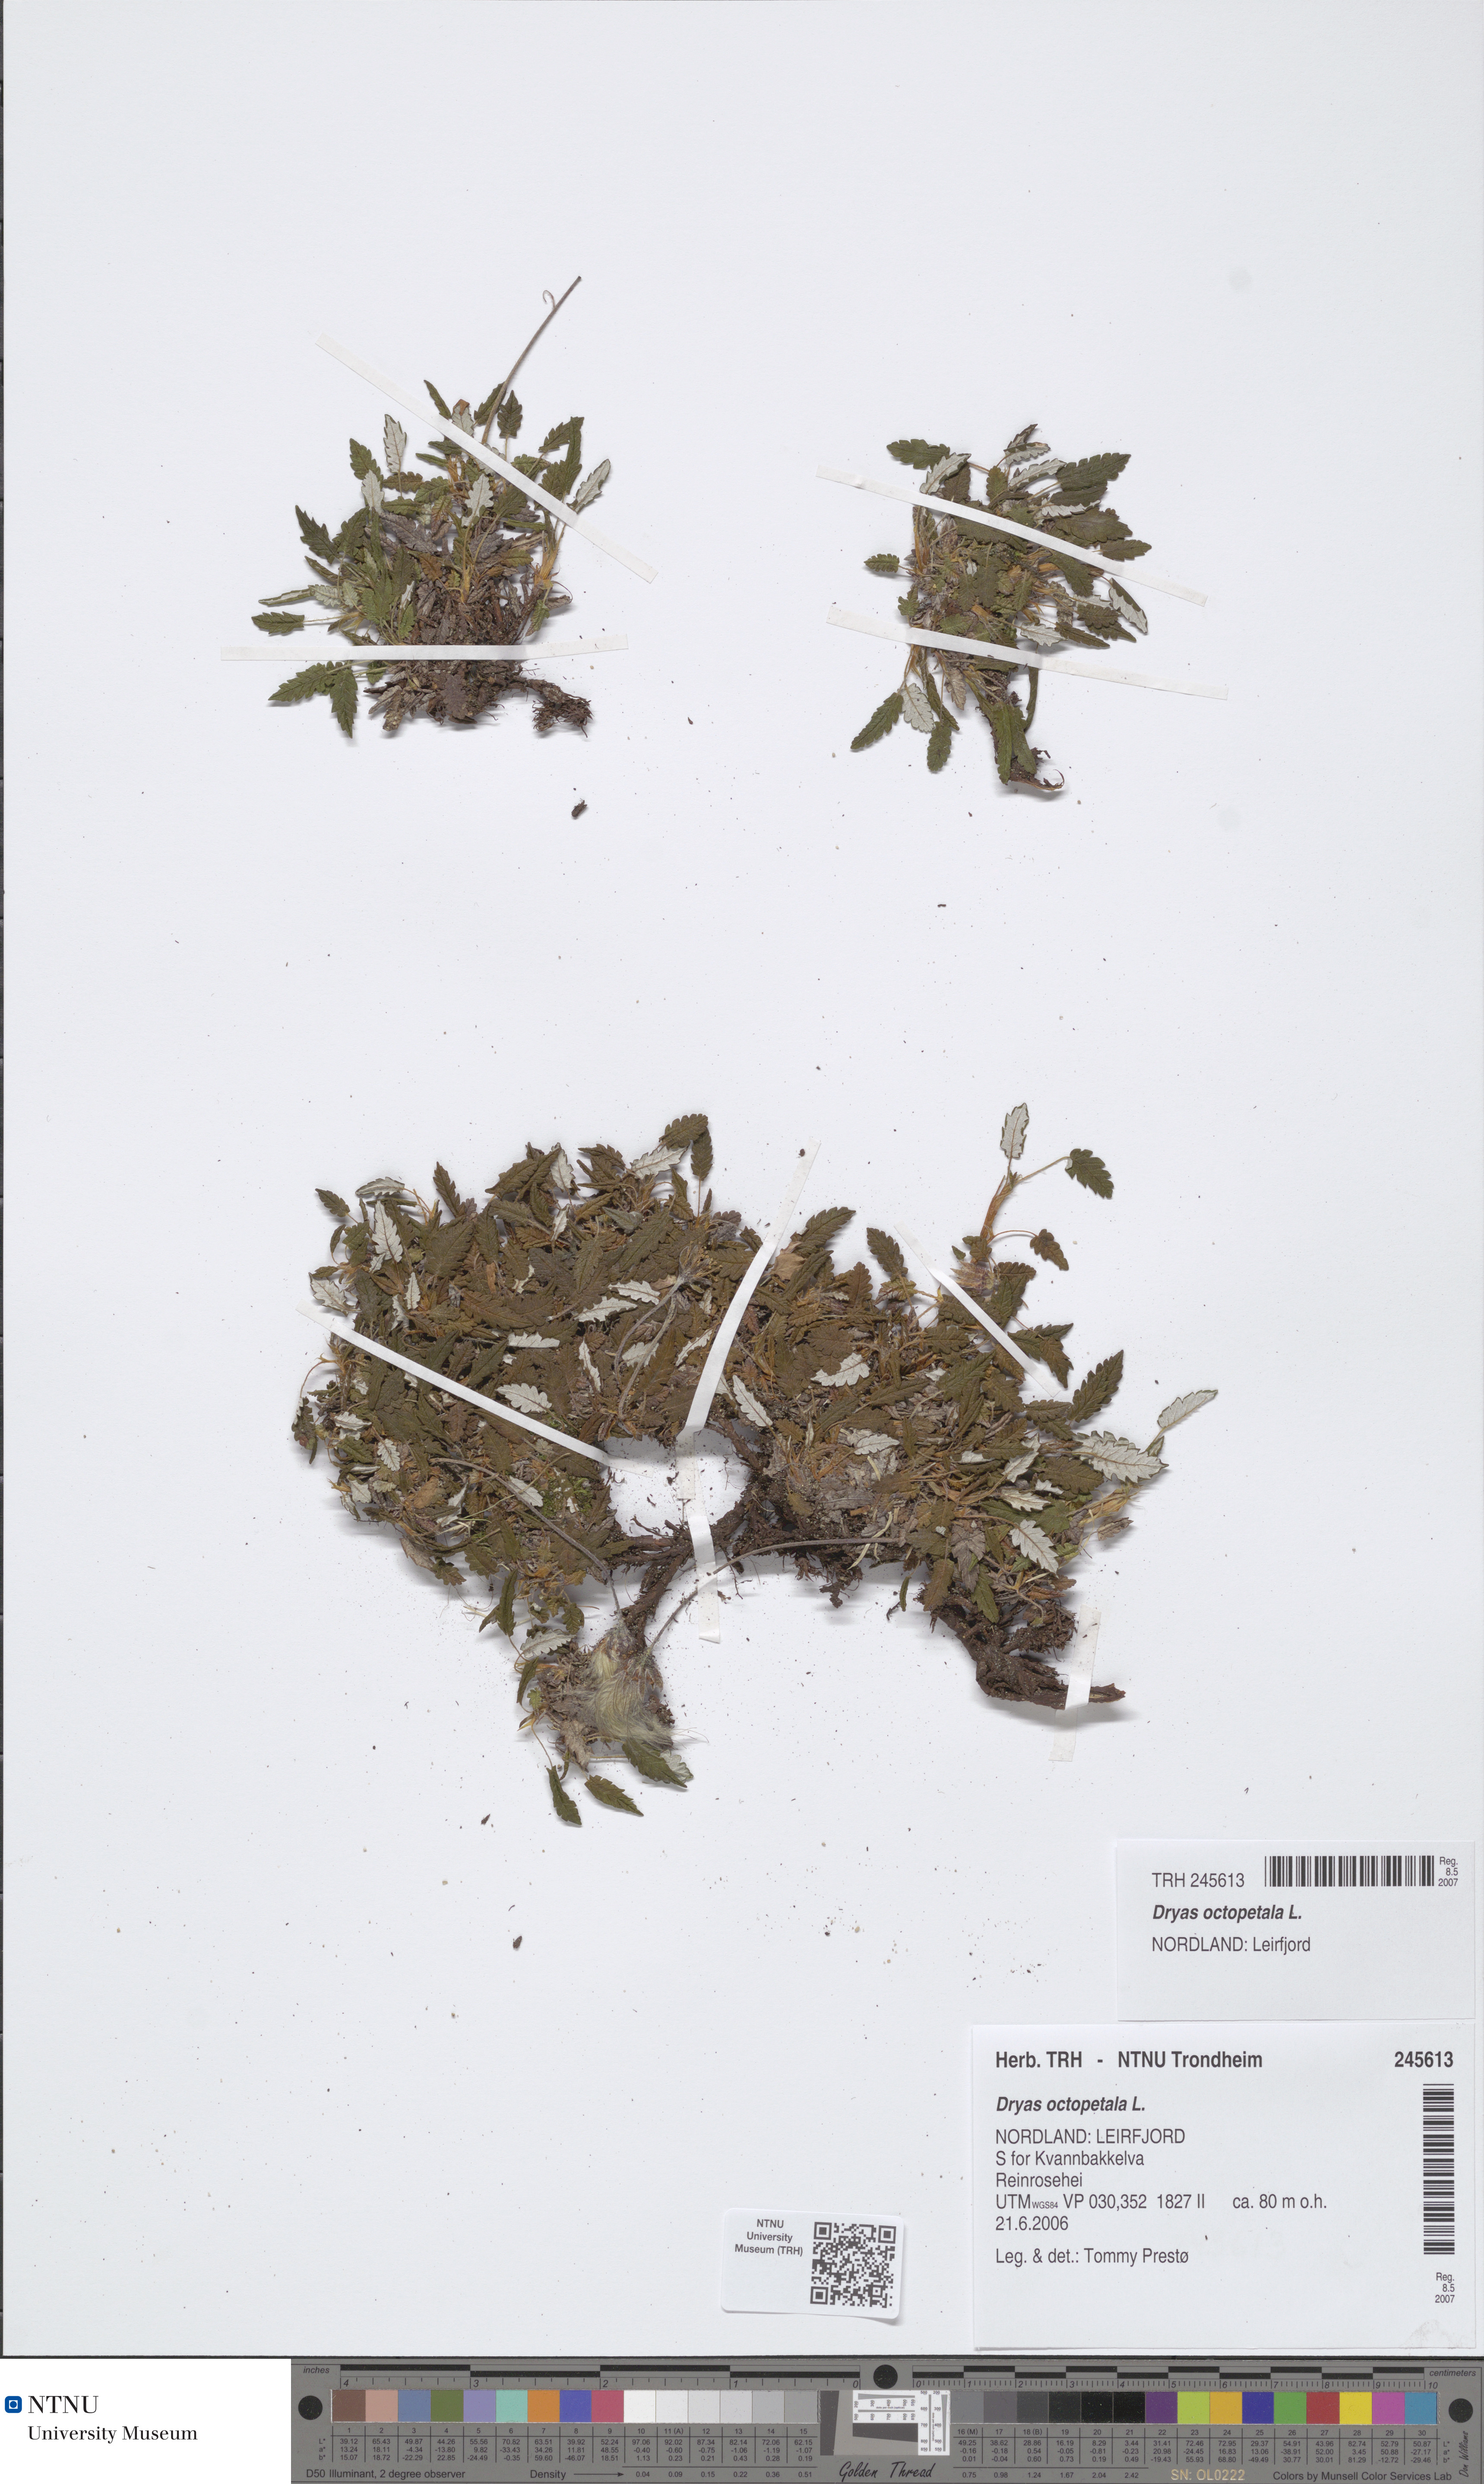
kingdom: Plantae
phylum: Tracheophyta
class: Magnoliopsida
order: Rosales
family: Rosaceae
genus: Dryas
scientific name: Dryas octopetala
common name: Eight-petal mountain-avens
